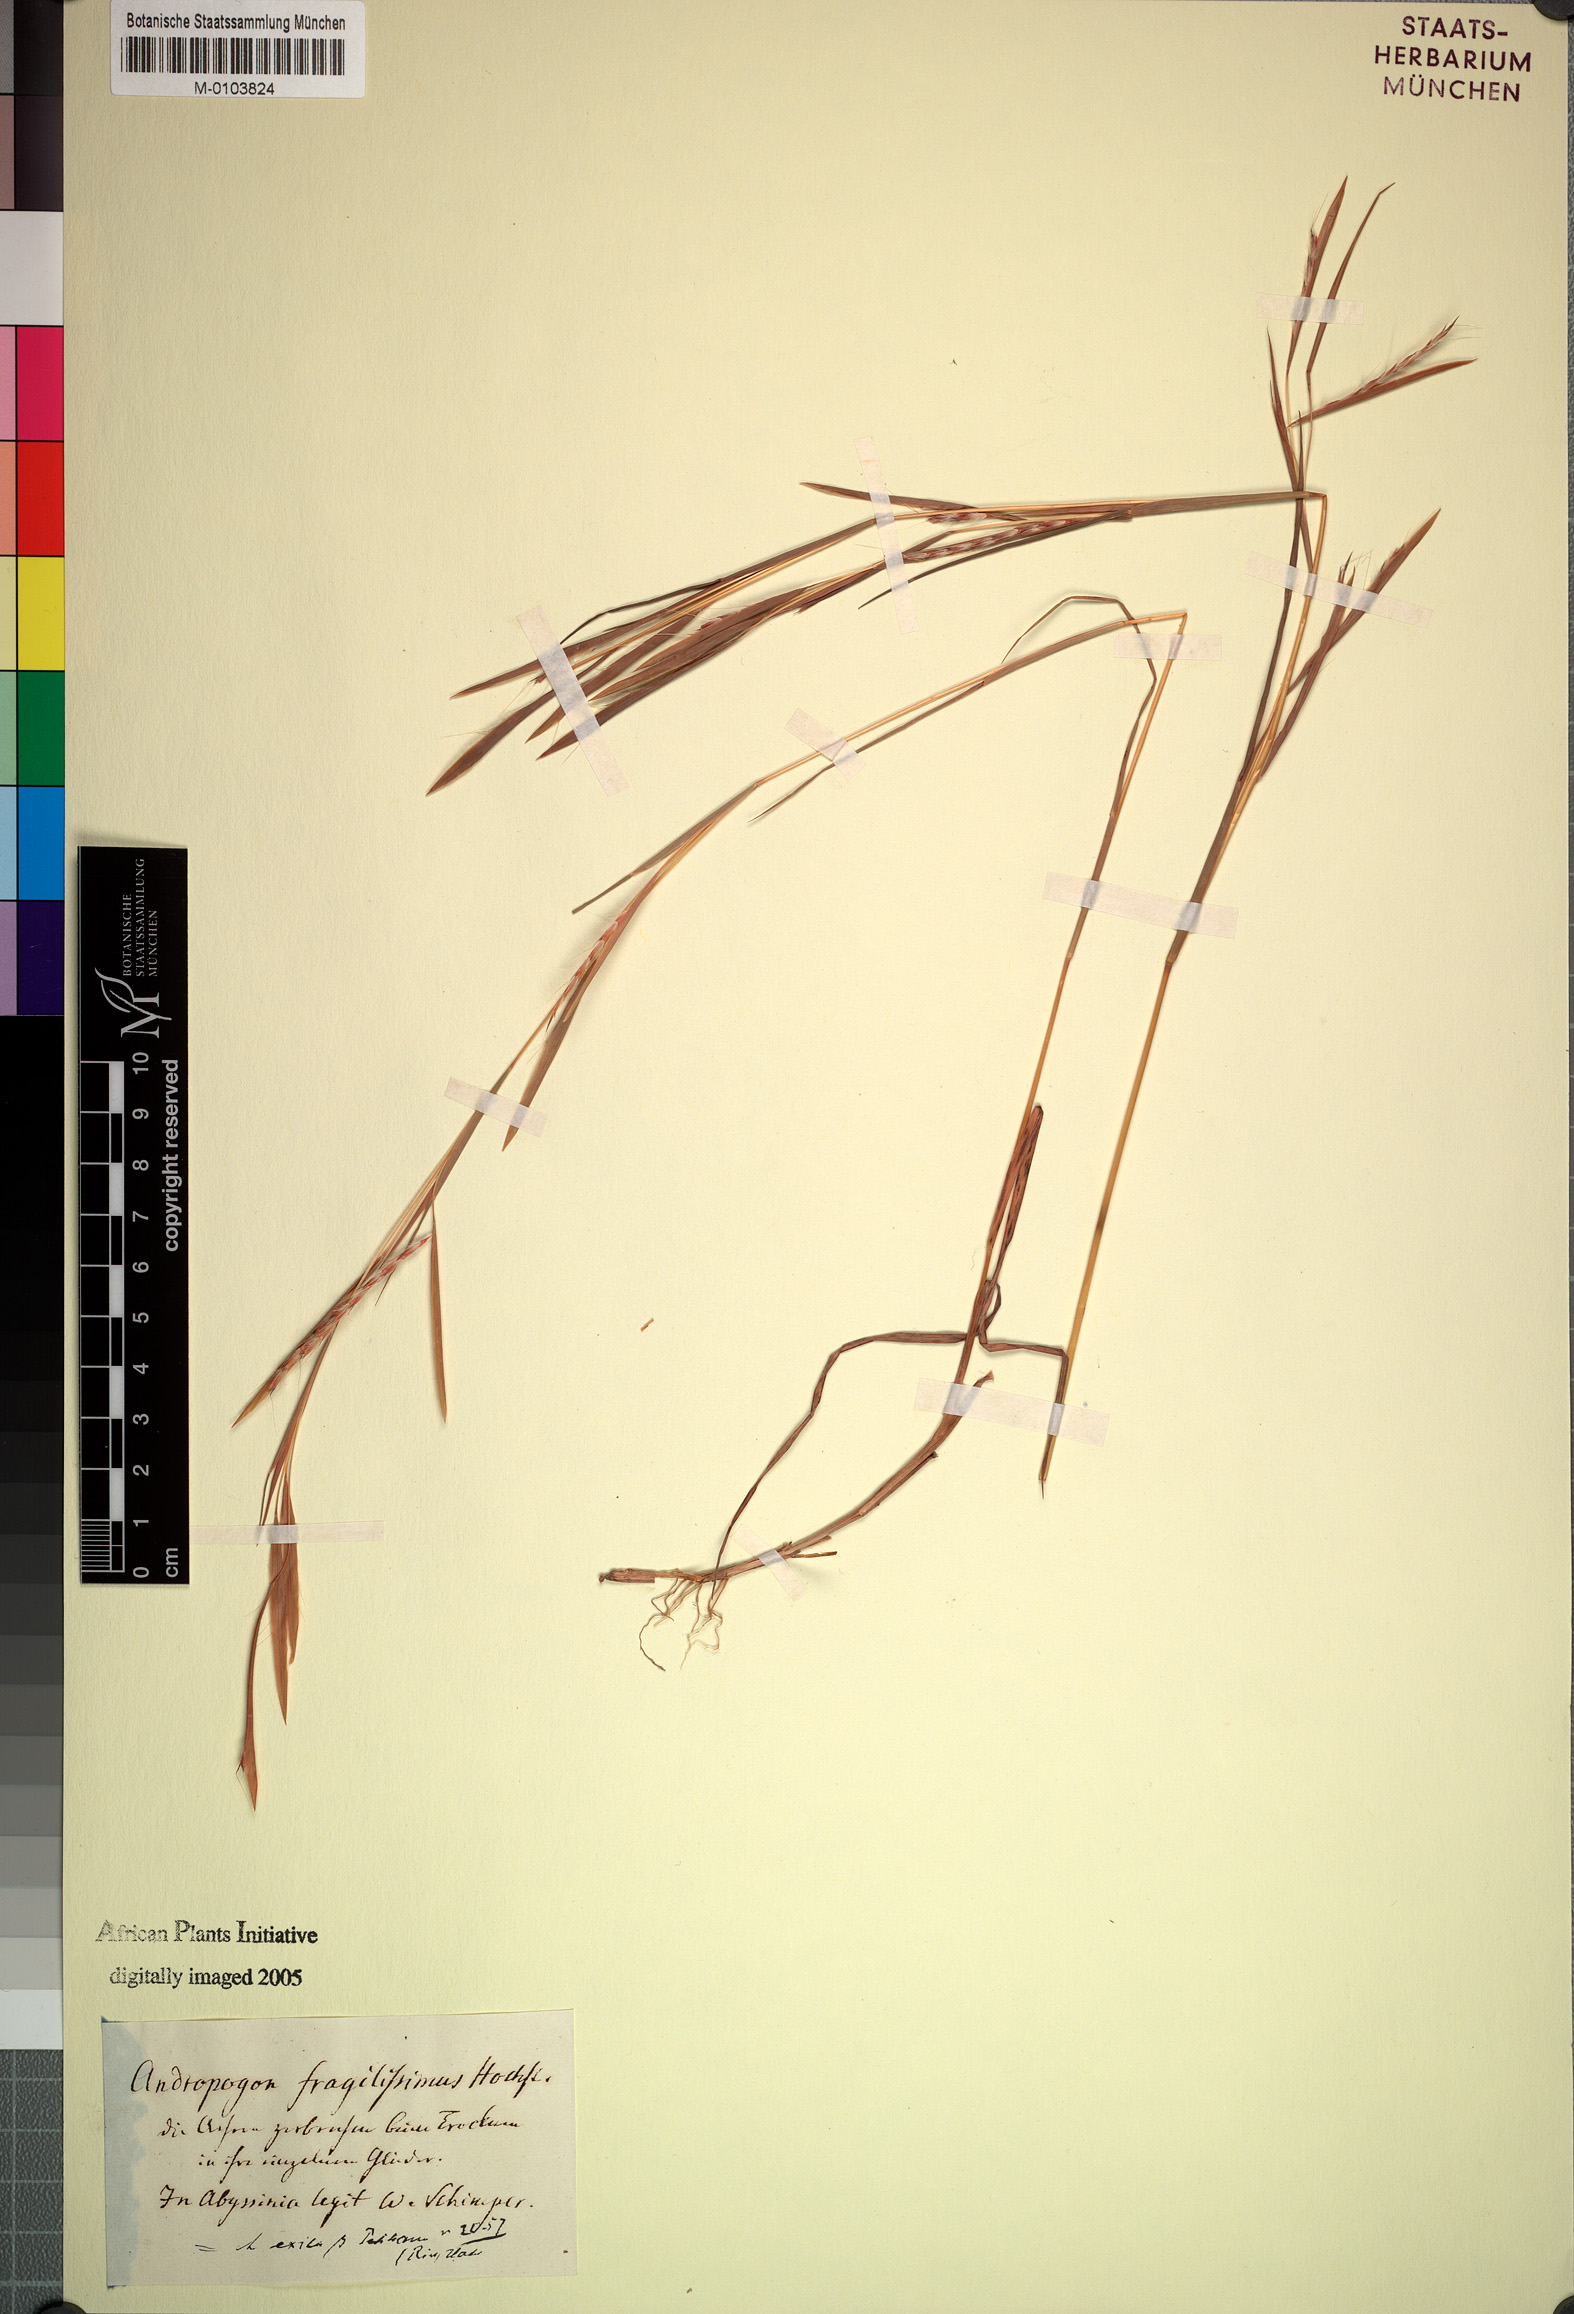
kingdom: Plantae
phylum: Tracheophyta
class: Liliopsida
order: Poales
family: Poaceae
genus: Schizachyrium
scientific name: Schizachyrium exile
